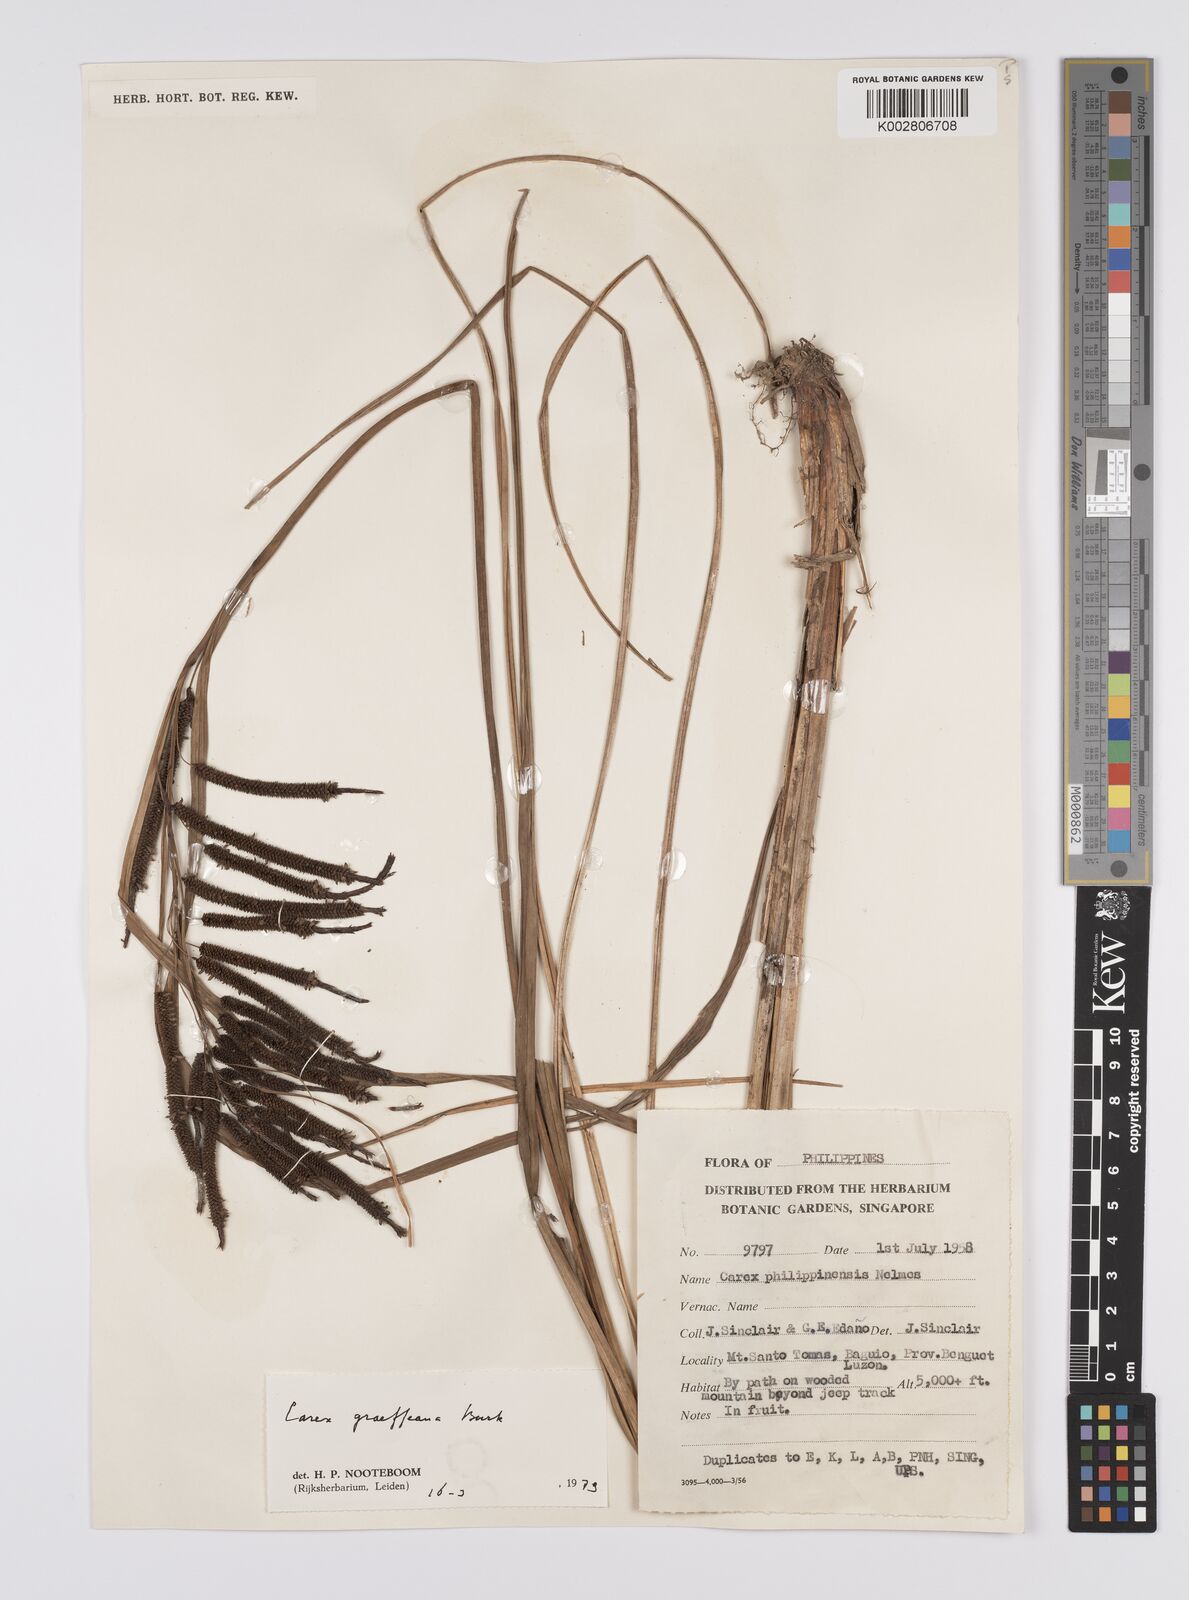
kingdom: Plantae
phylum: Tracheophyta
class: Liliopsida
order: Poales
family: Cyperaceae
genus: Carex
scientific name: Carex graeffeana
